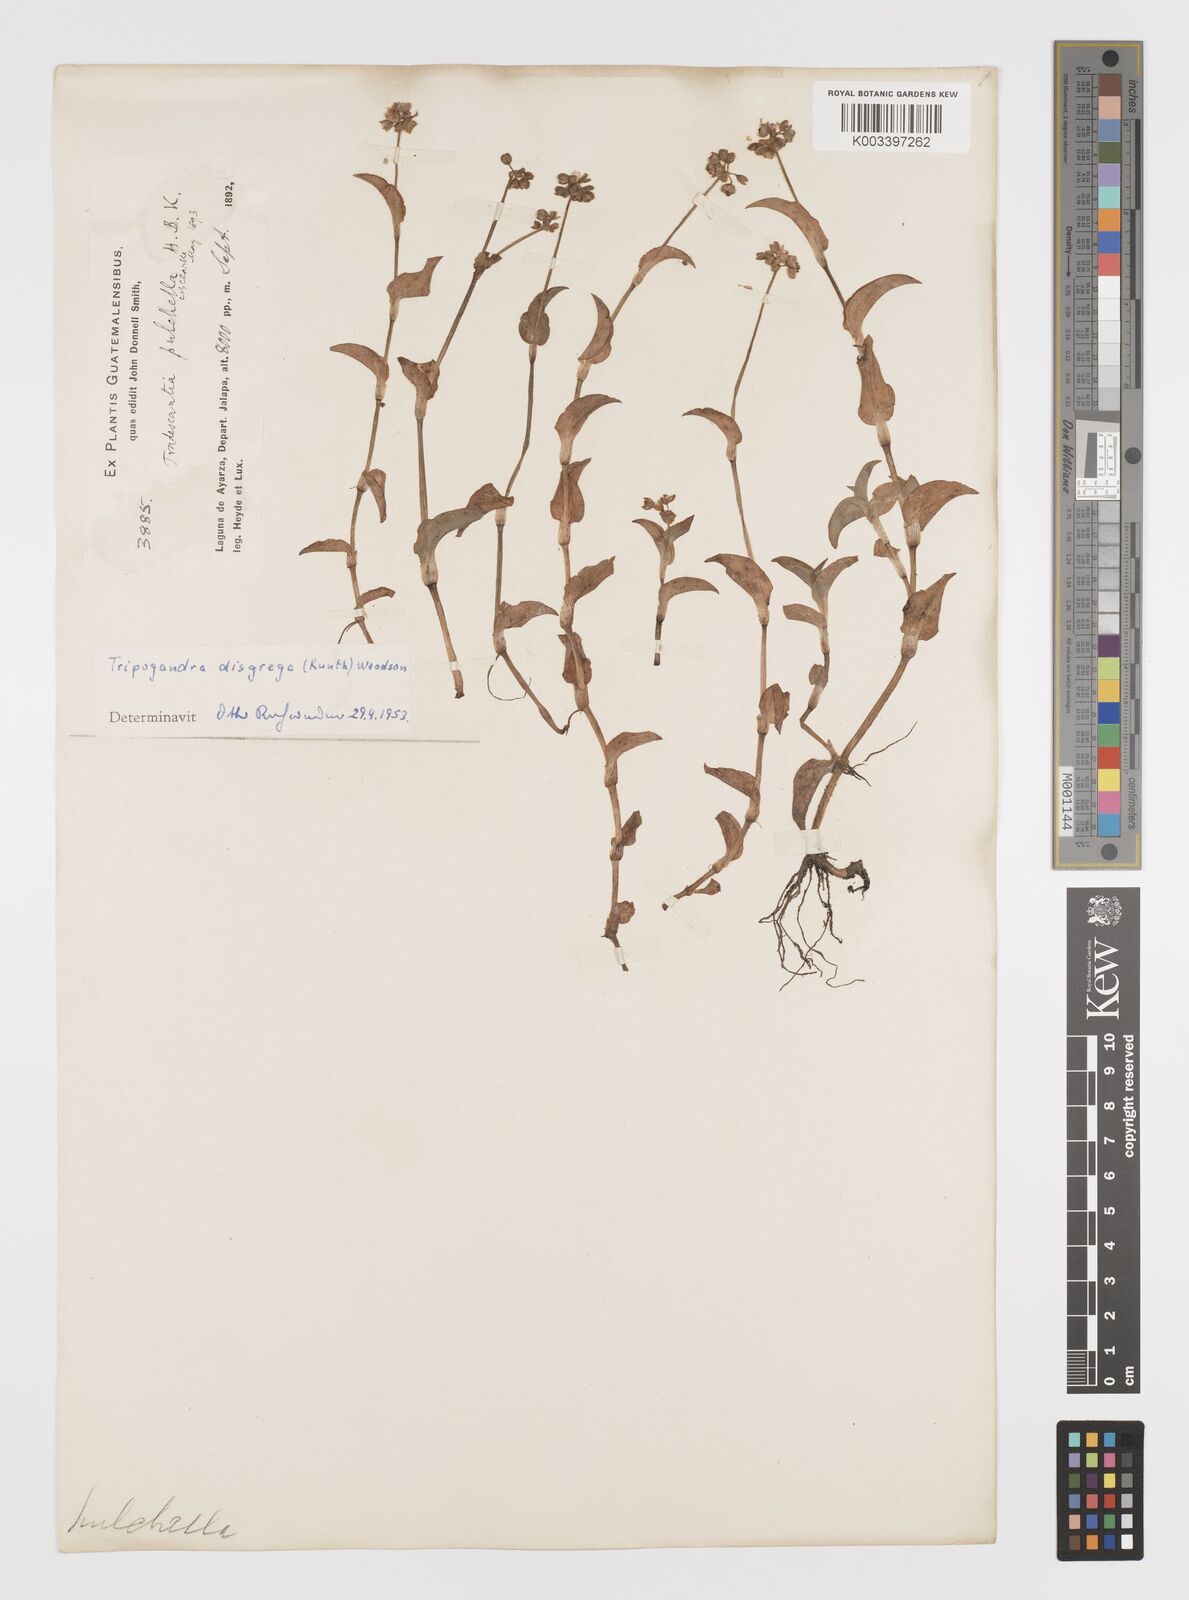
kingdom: Plantae
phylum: Tracheophyta
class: Liliopsida
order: Commelinales
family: Commelinaceae
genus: Callisia
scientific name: Callisia purpurascens
